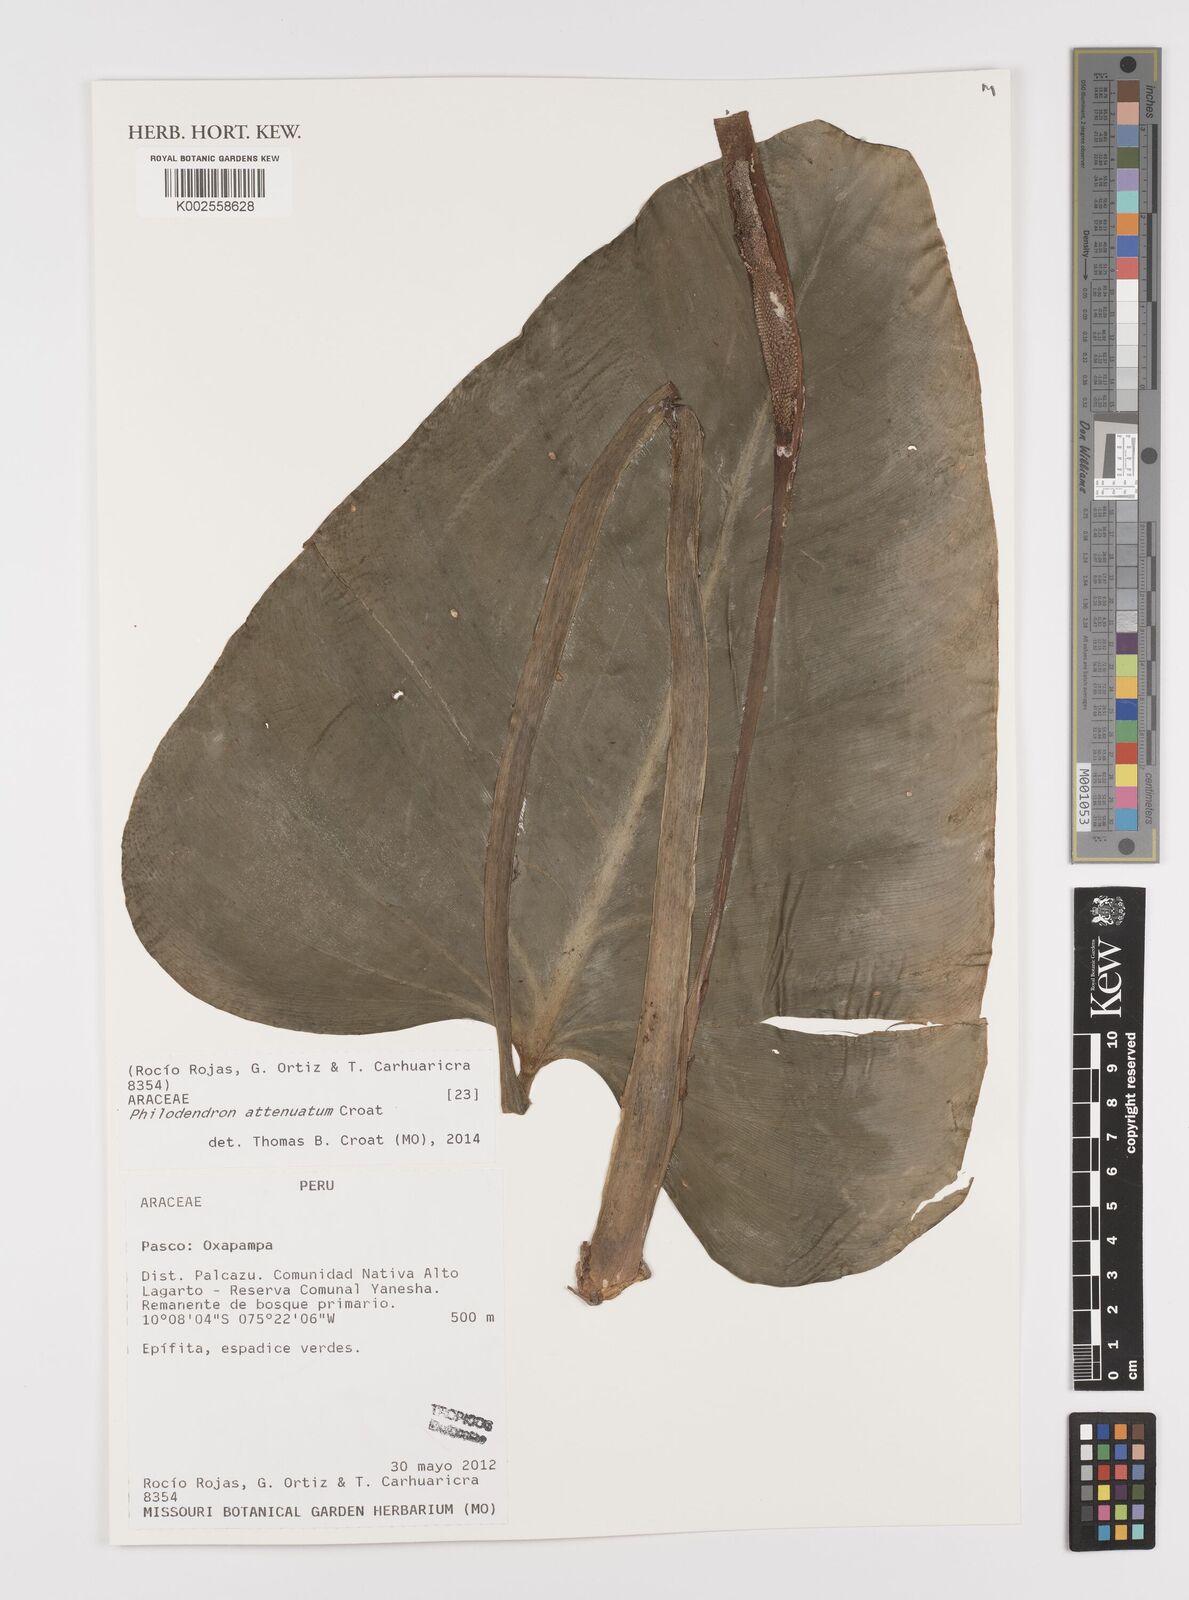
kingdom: Plantae
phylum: Tracheophyta
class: Liliopsida
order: Alismatales
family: Araceae
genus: Philodendron
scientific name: Philodendron attenuatum
